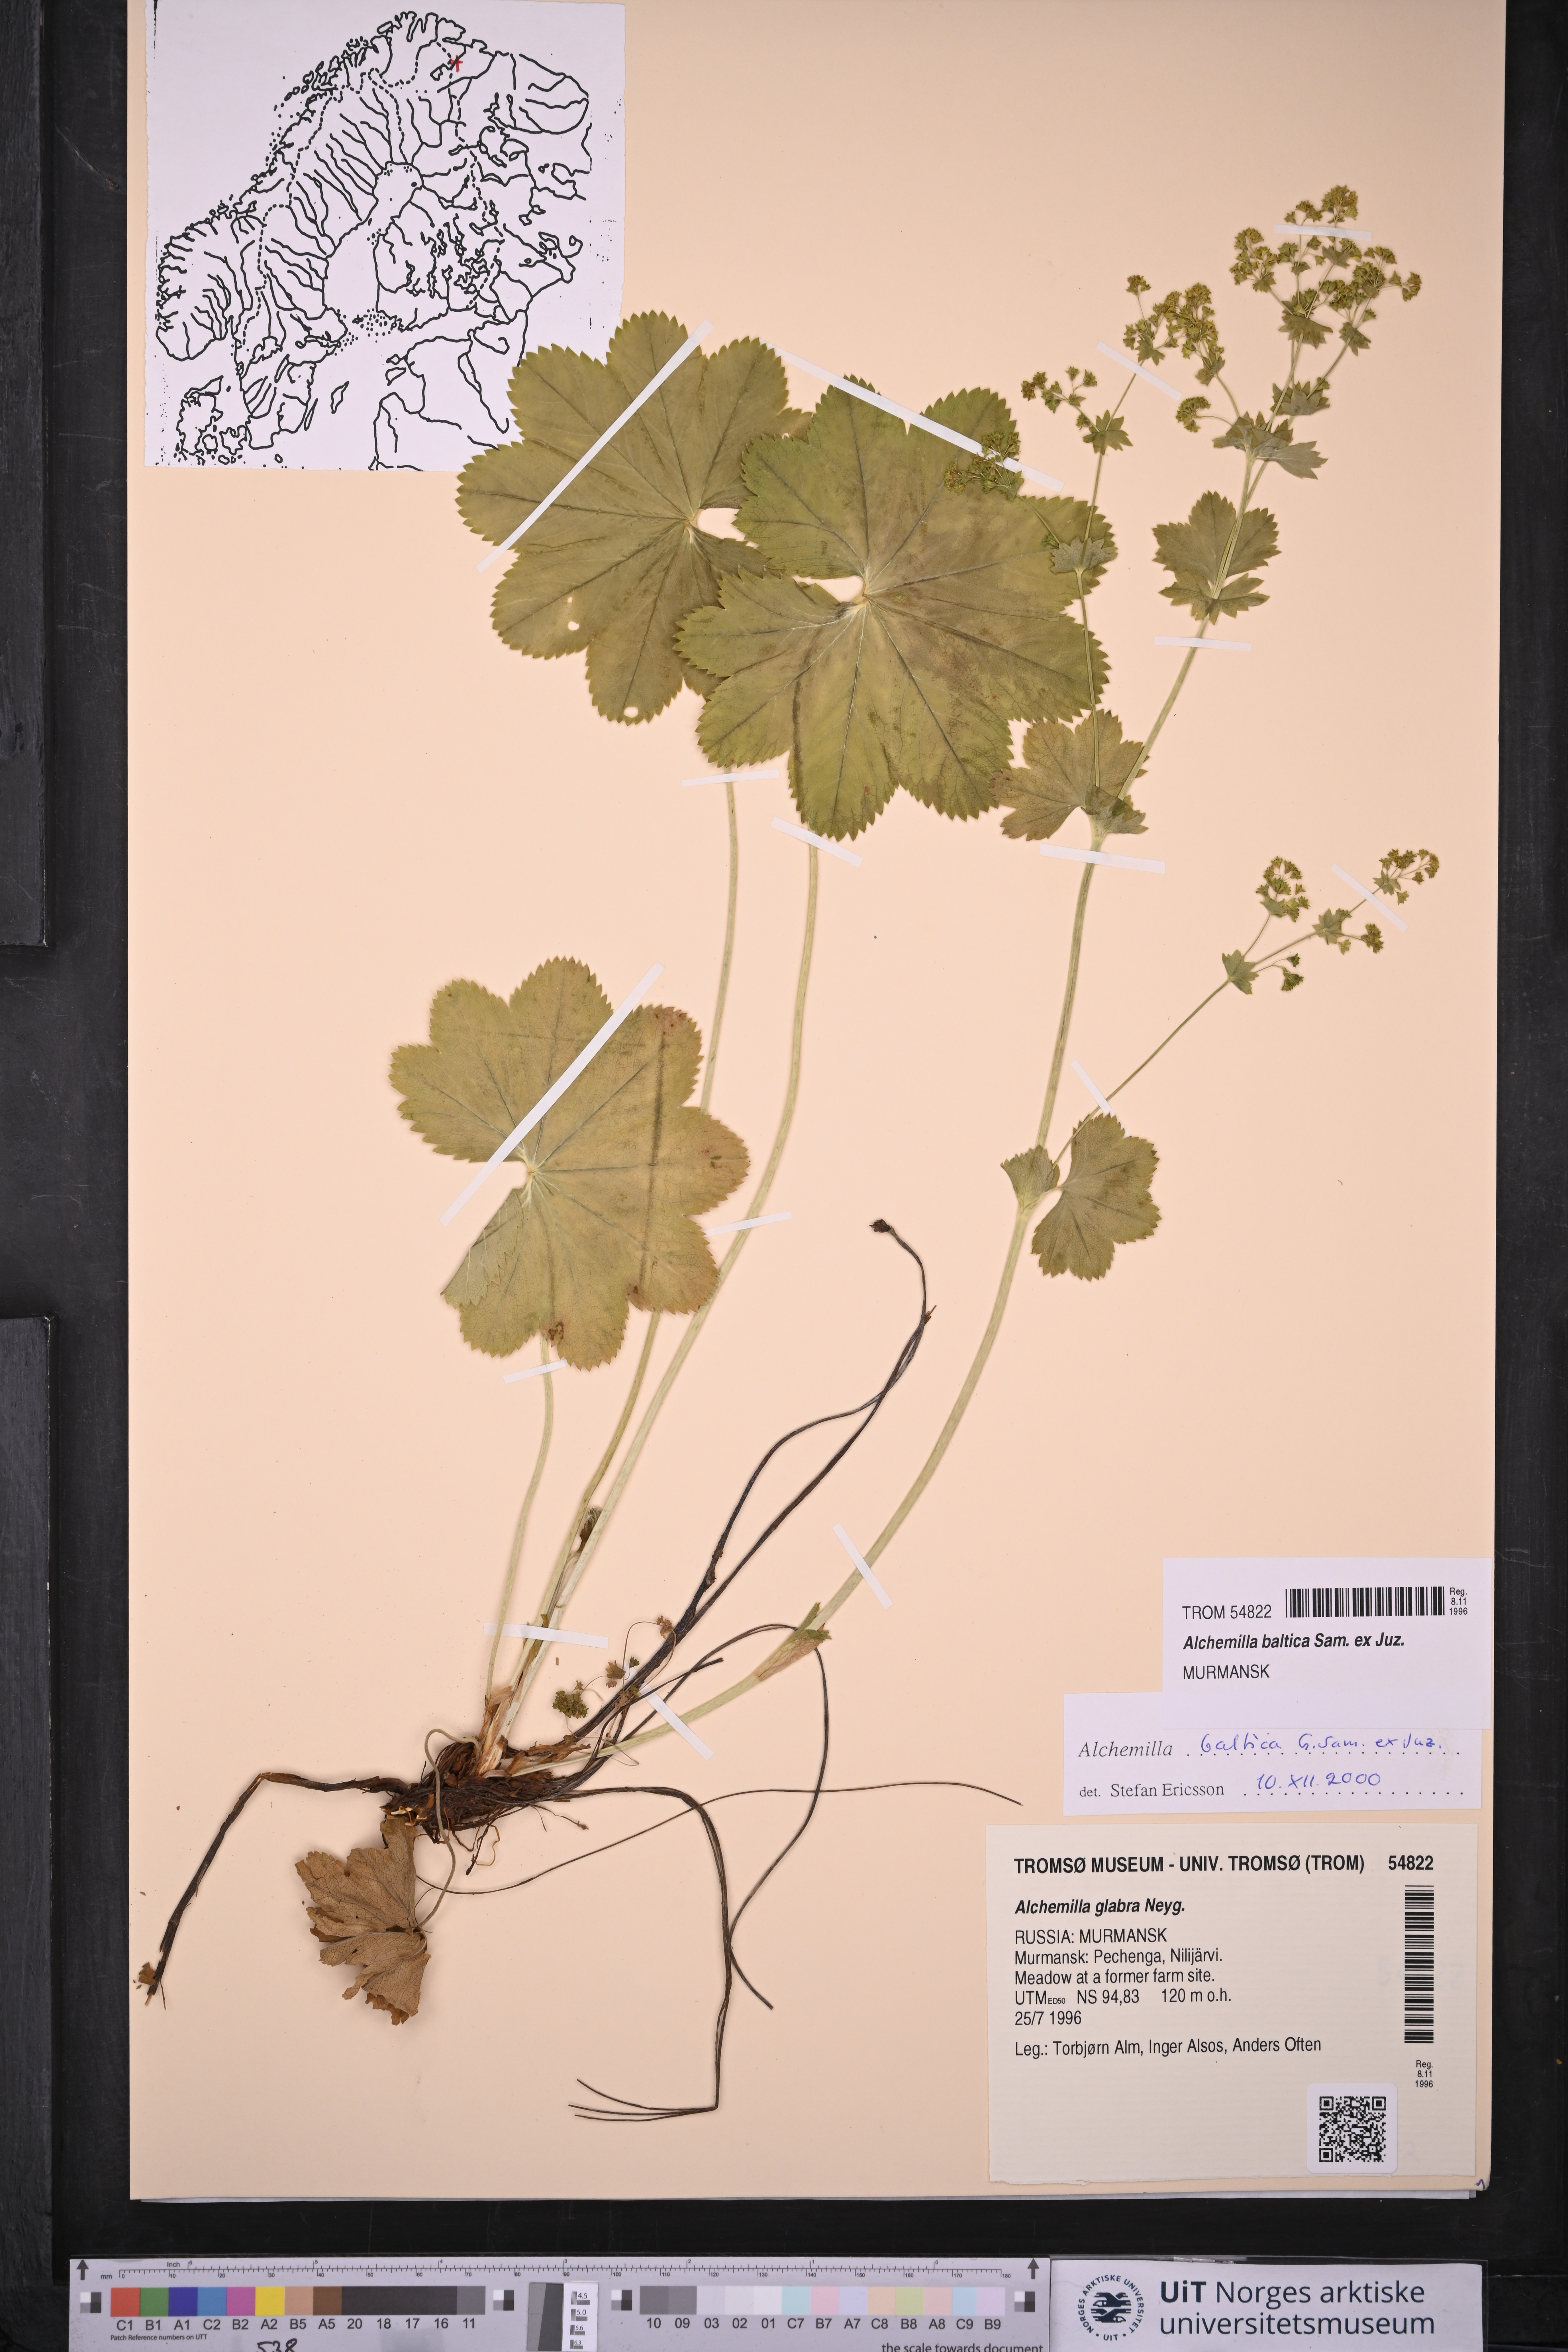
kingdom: Plantae
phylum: Tracheophyta
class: Magnoliopsida
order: Rosales
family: Rosaceae
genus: Alchemilla
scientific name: Alchemilla baltica
